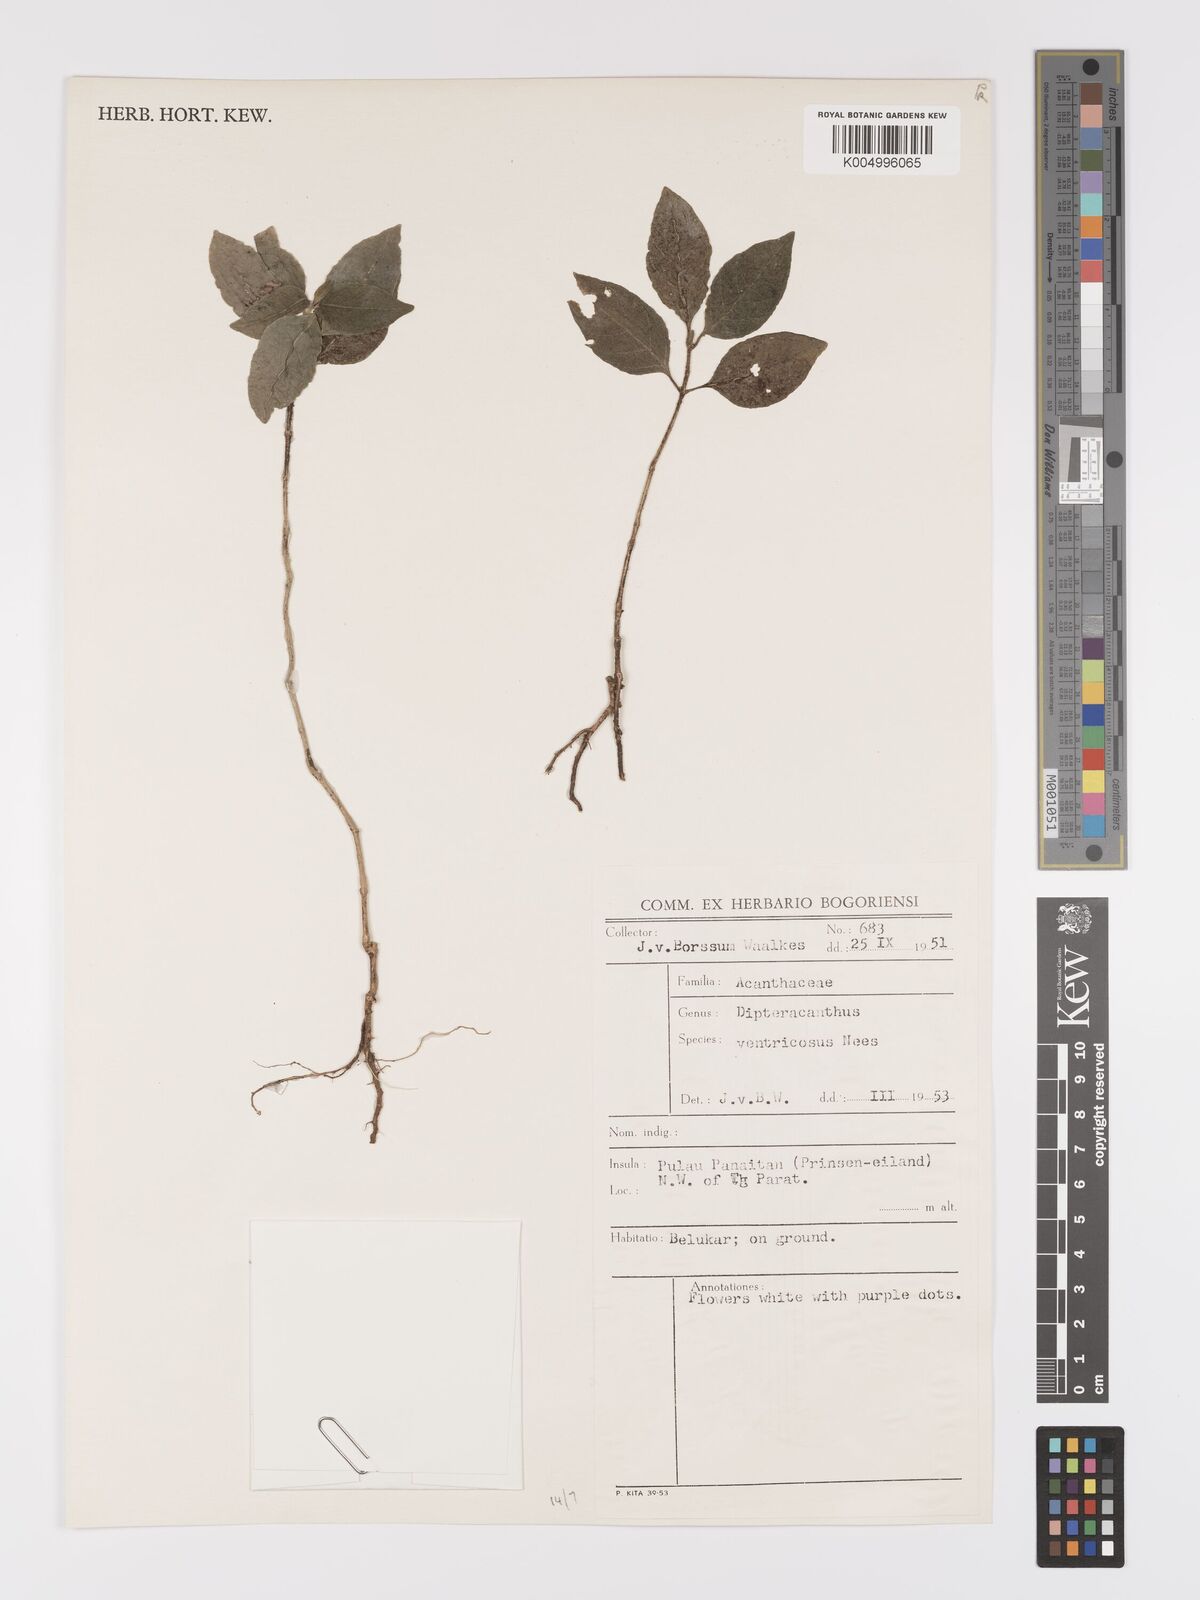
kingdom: Plantae
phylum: Tracheophyta
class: Magnoliopsida
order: Lamiales
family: Acanthaceae
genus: Ruellia
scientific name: Ruellia
